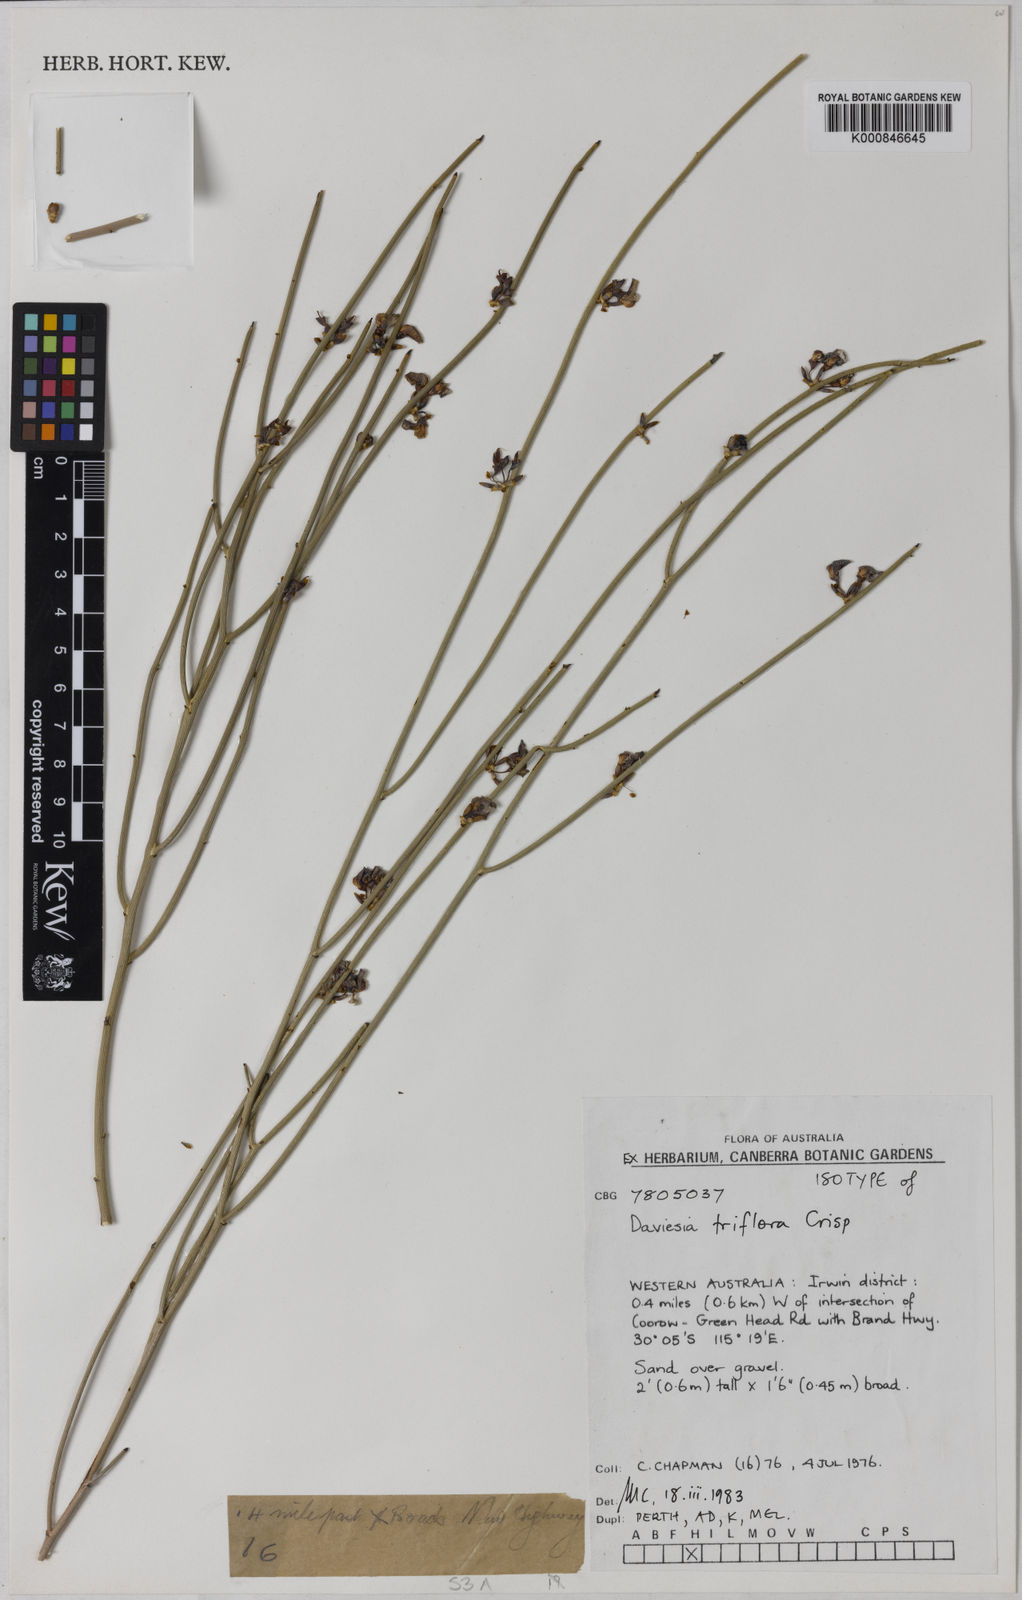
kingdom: Plantae
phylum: Tracheophyta
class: Magnoliopsida
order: Fabales
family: Fabaceae
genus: Daviesia
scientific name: Daviesia triflora
